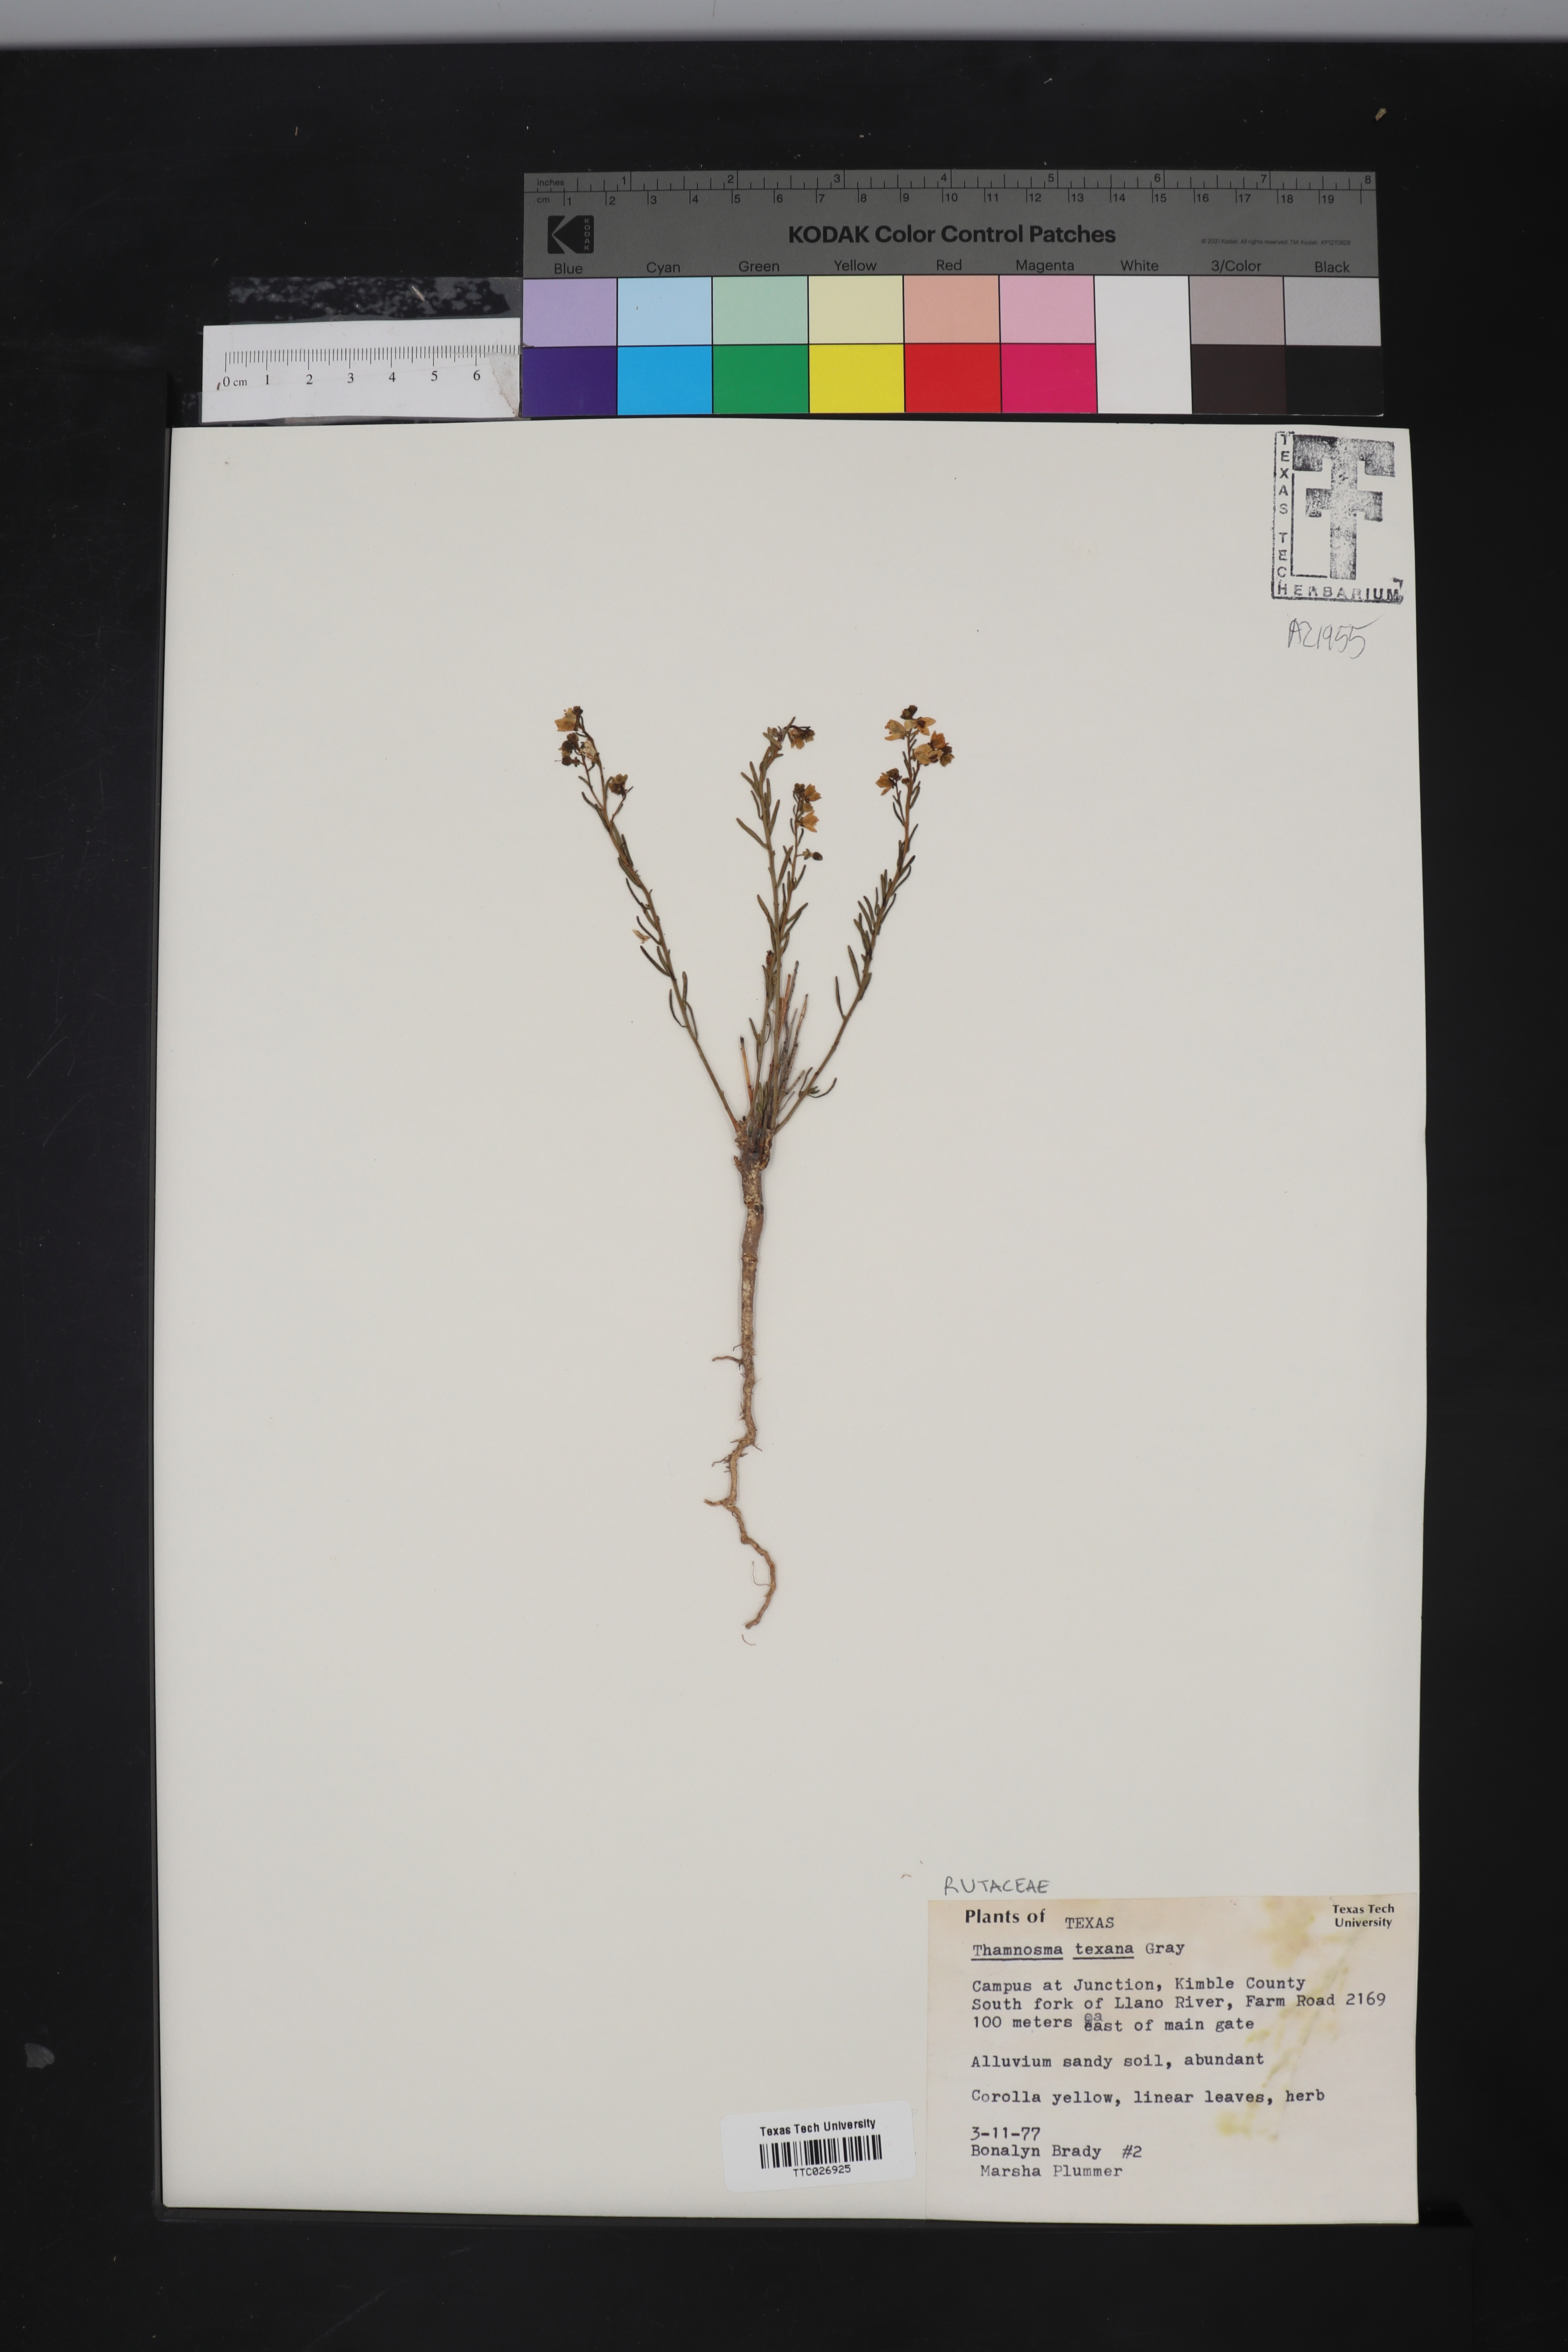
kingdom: Plantae
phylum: Tracheophyta
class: Magnoliopsida
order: Sapindales
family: Rutaceae
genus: Thamnosma
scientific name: Thamnosma texana
